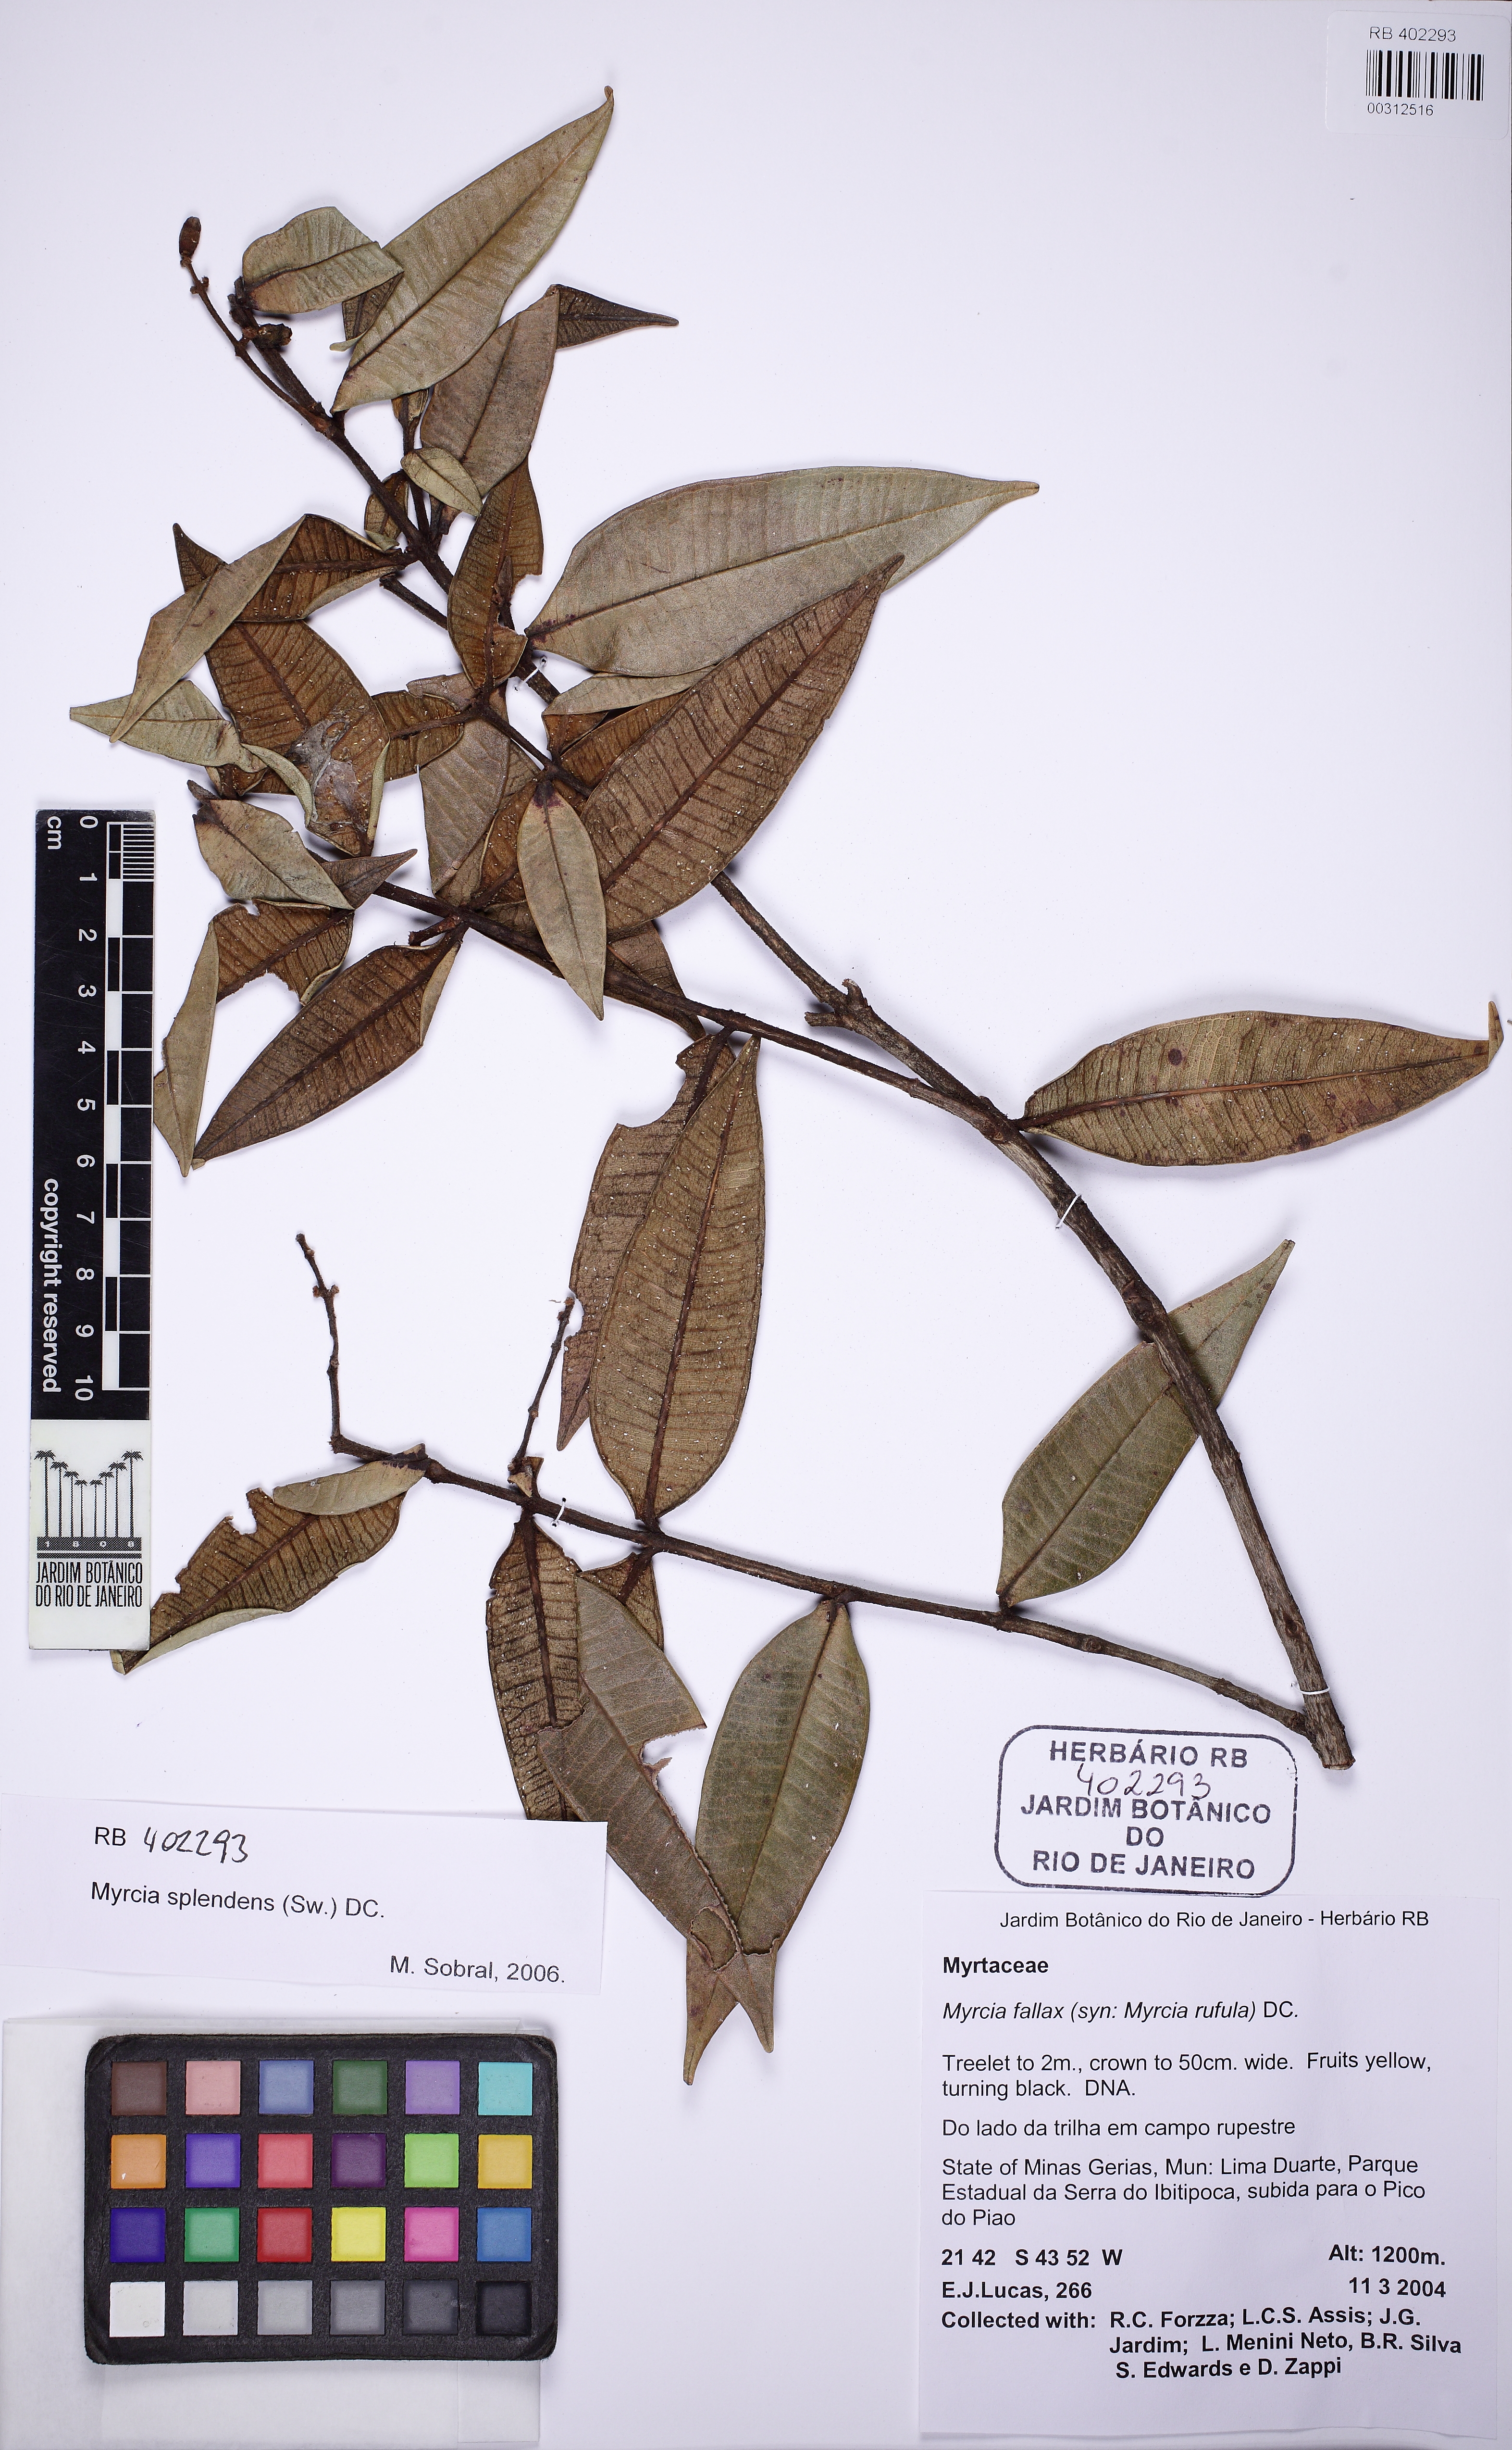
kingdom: Plantae
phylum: Tracheophyta
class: Magnoliopsida
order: Myrtales
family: Myrtaceae
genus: Myrcia
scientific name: Myrcia splendens
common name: Surinam cherry
